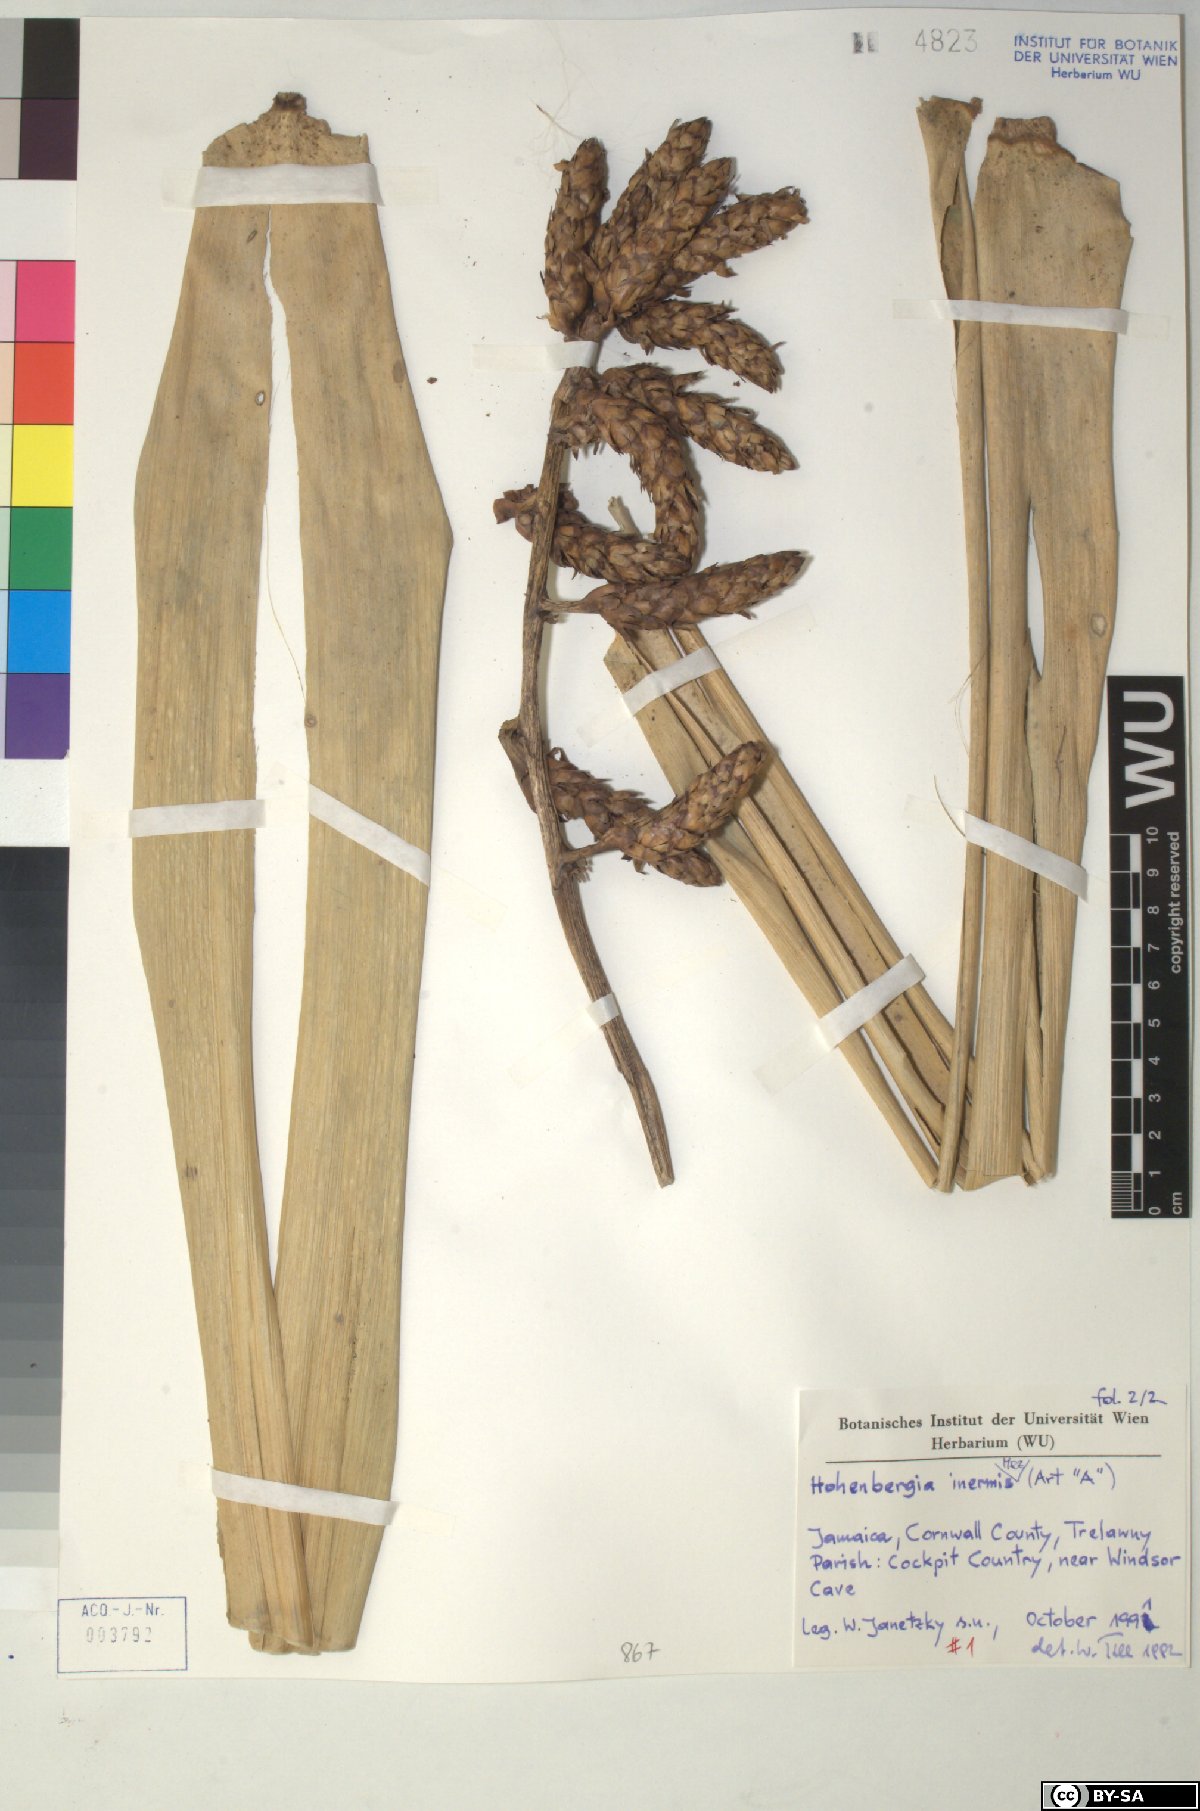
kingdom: Plantae
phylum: Tracheophyta
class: Liliopsida
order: Poales
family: Bromeliaceae
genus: Wittmackia
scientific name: Wittmackia inermis
